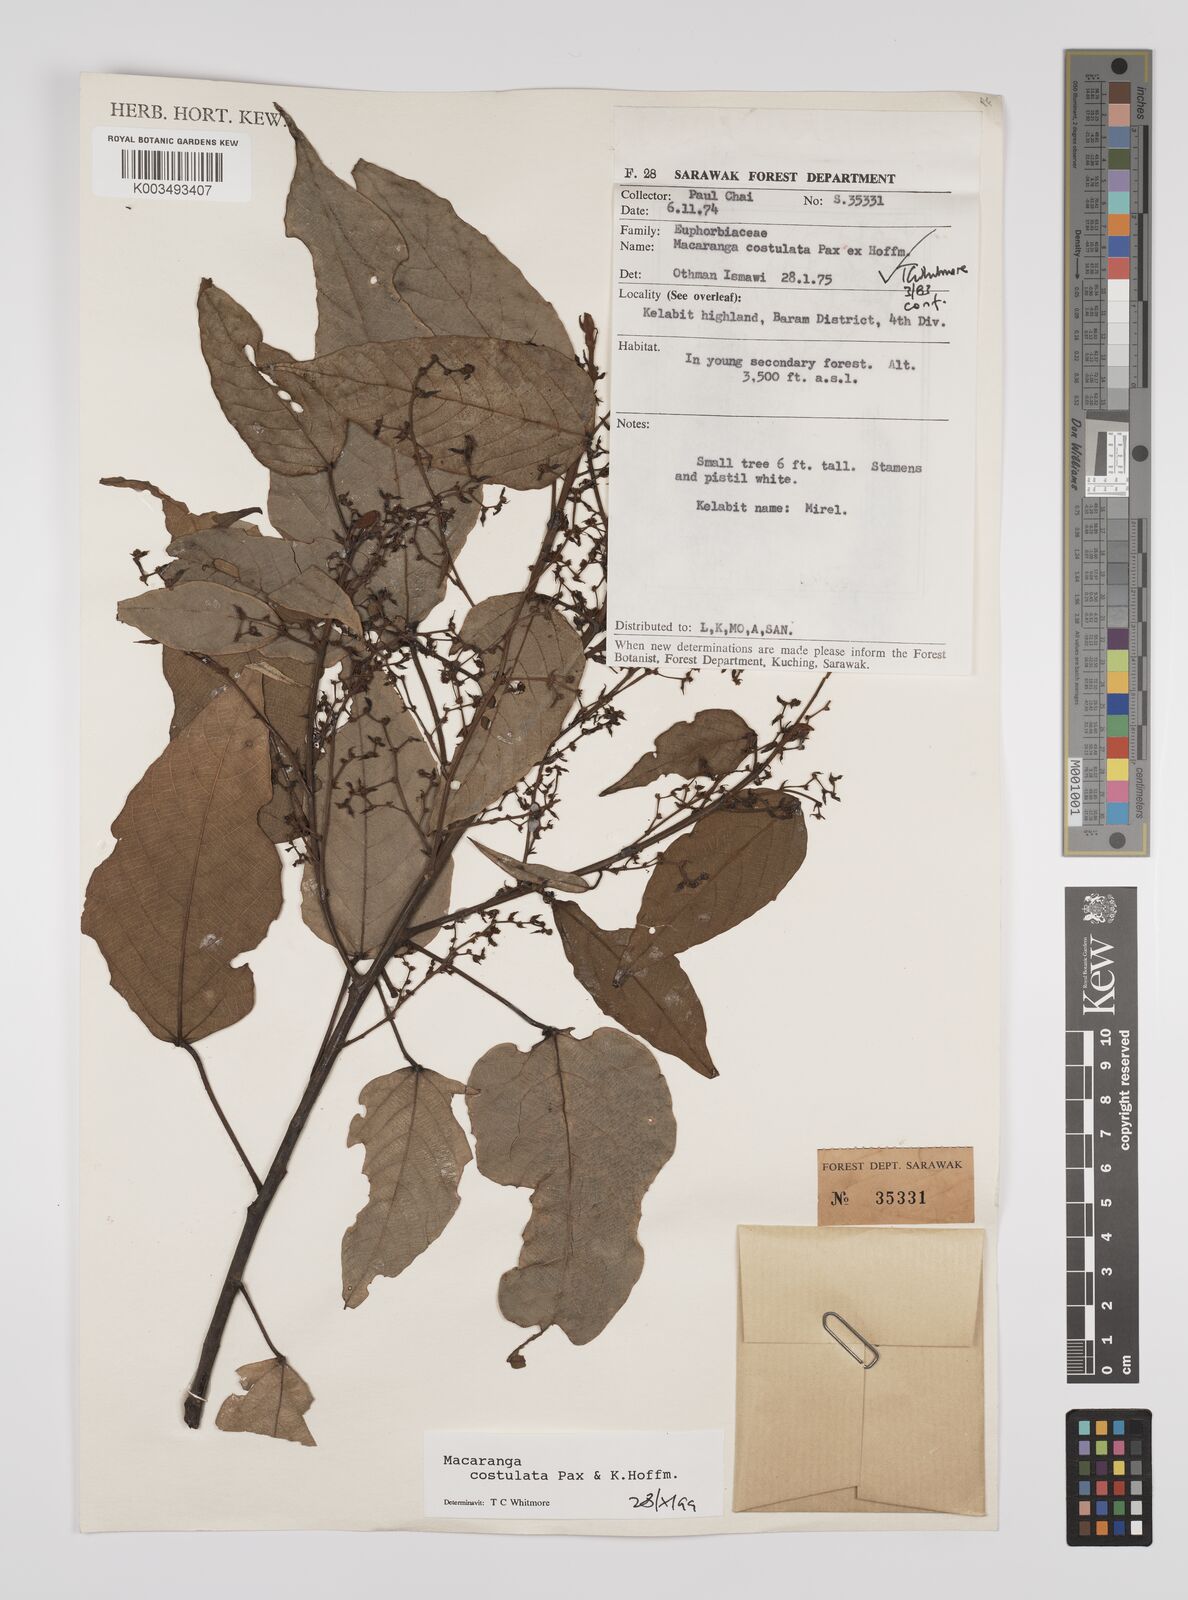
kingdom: Plantae
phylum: Tracheophyta
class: Magnoliopsida
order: Malpighiales
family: Euphorbiaceae
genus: Macaranga
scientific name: Macaranga costulata
